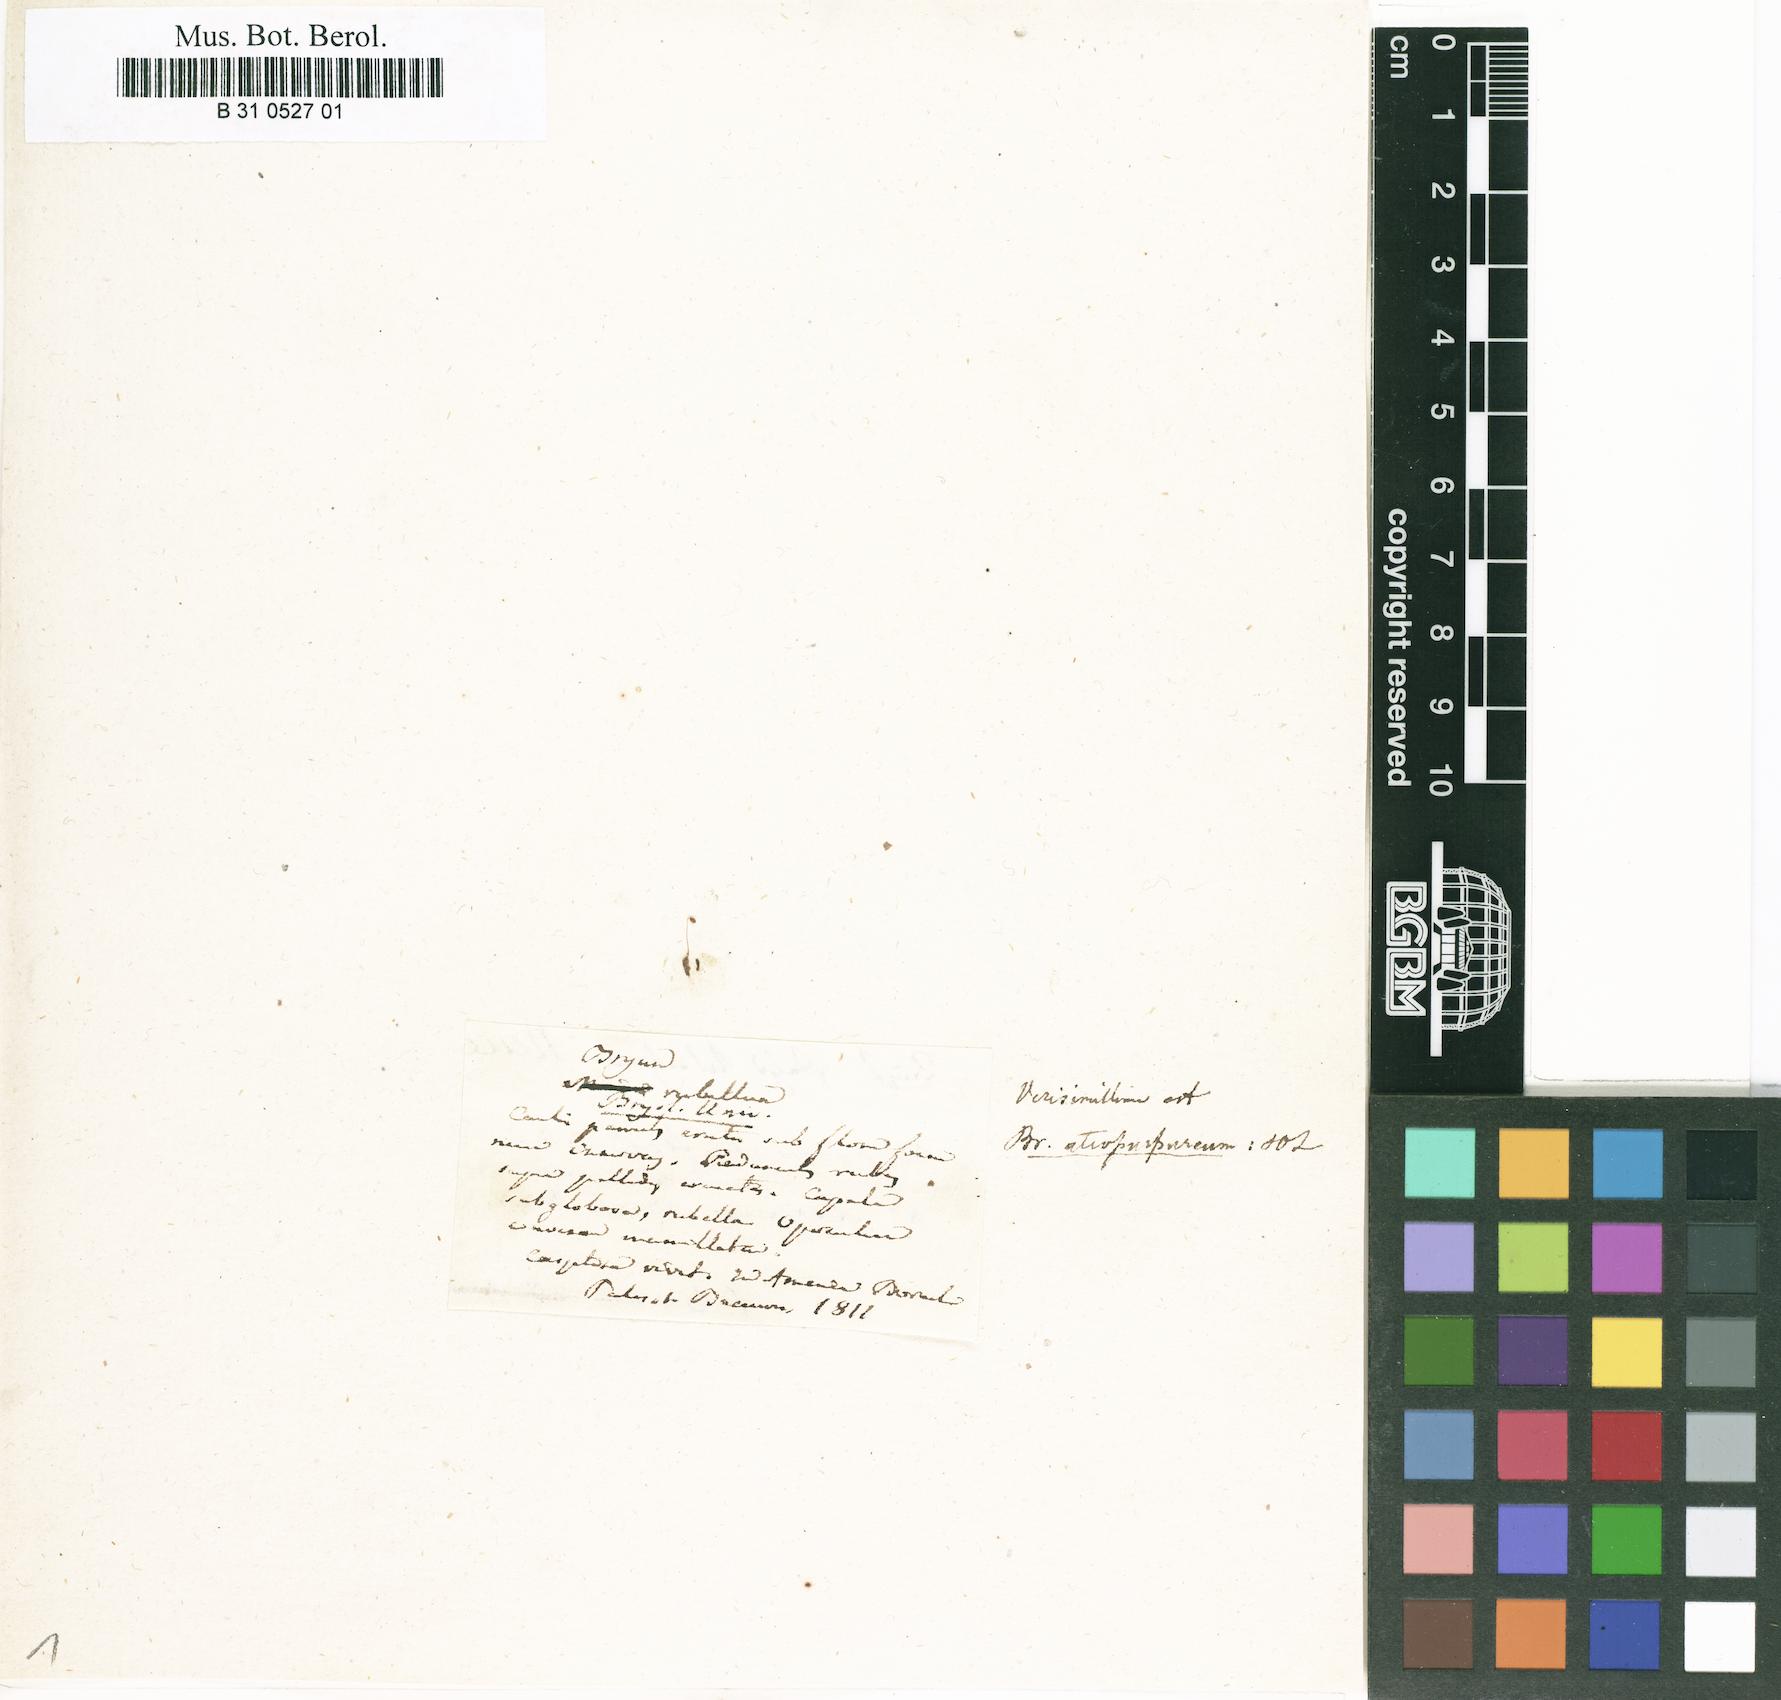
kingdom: Plantae
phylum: Bryophyta
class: Bryopsida
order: Bryales
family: Mniaceae
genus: Pohlia
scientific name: Pohlia melanodon
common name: Black-toothed nodding moss
